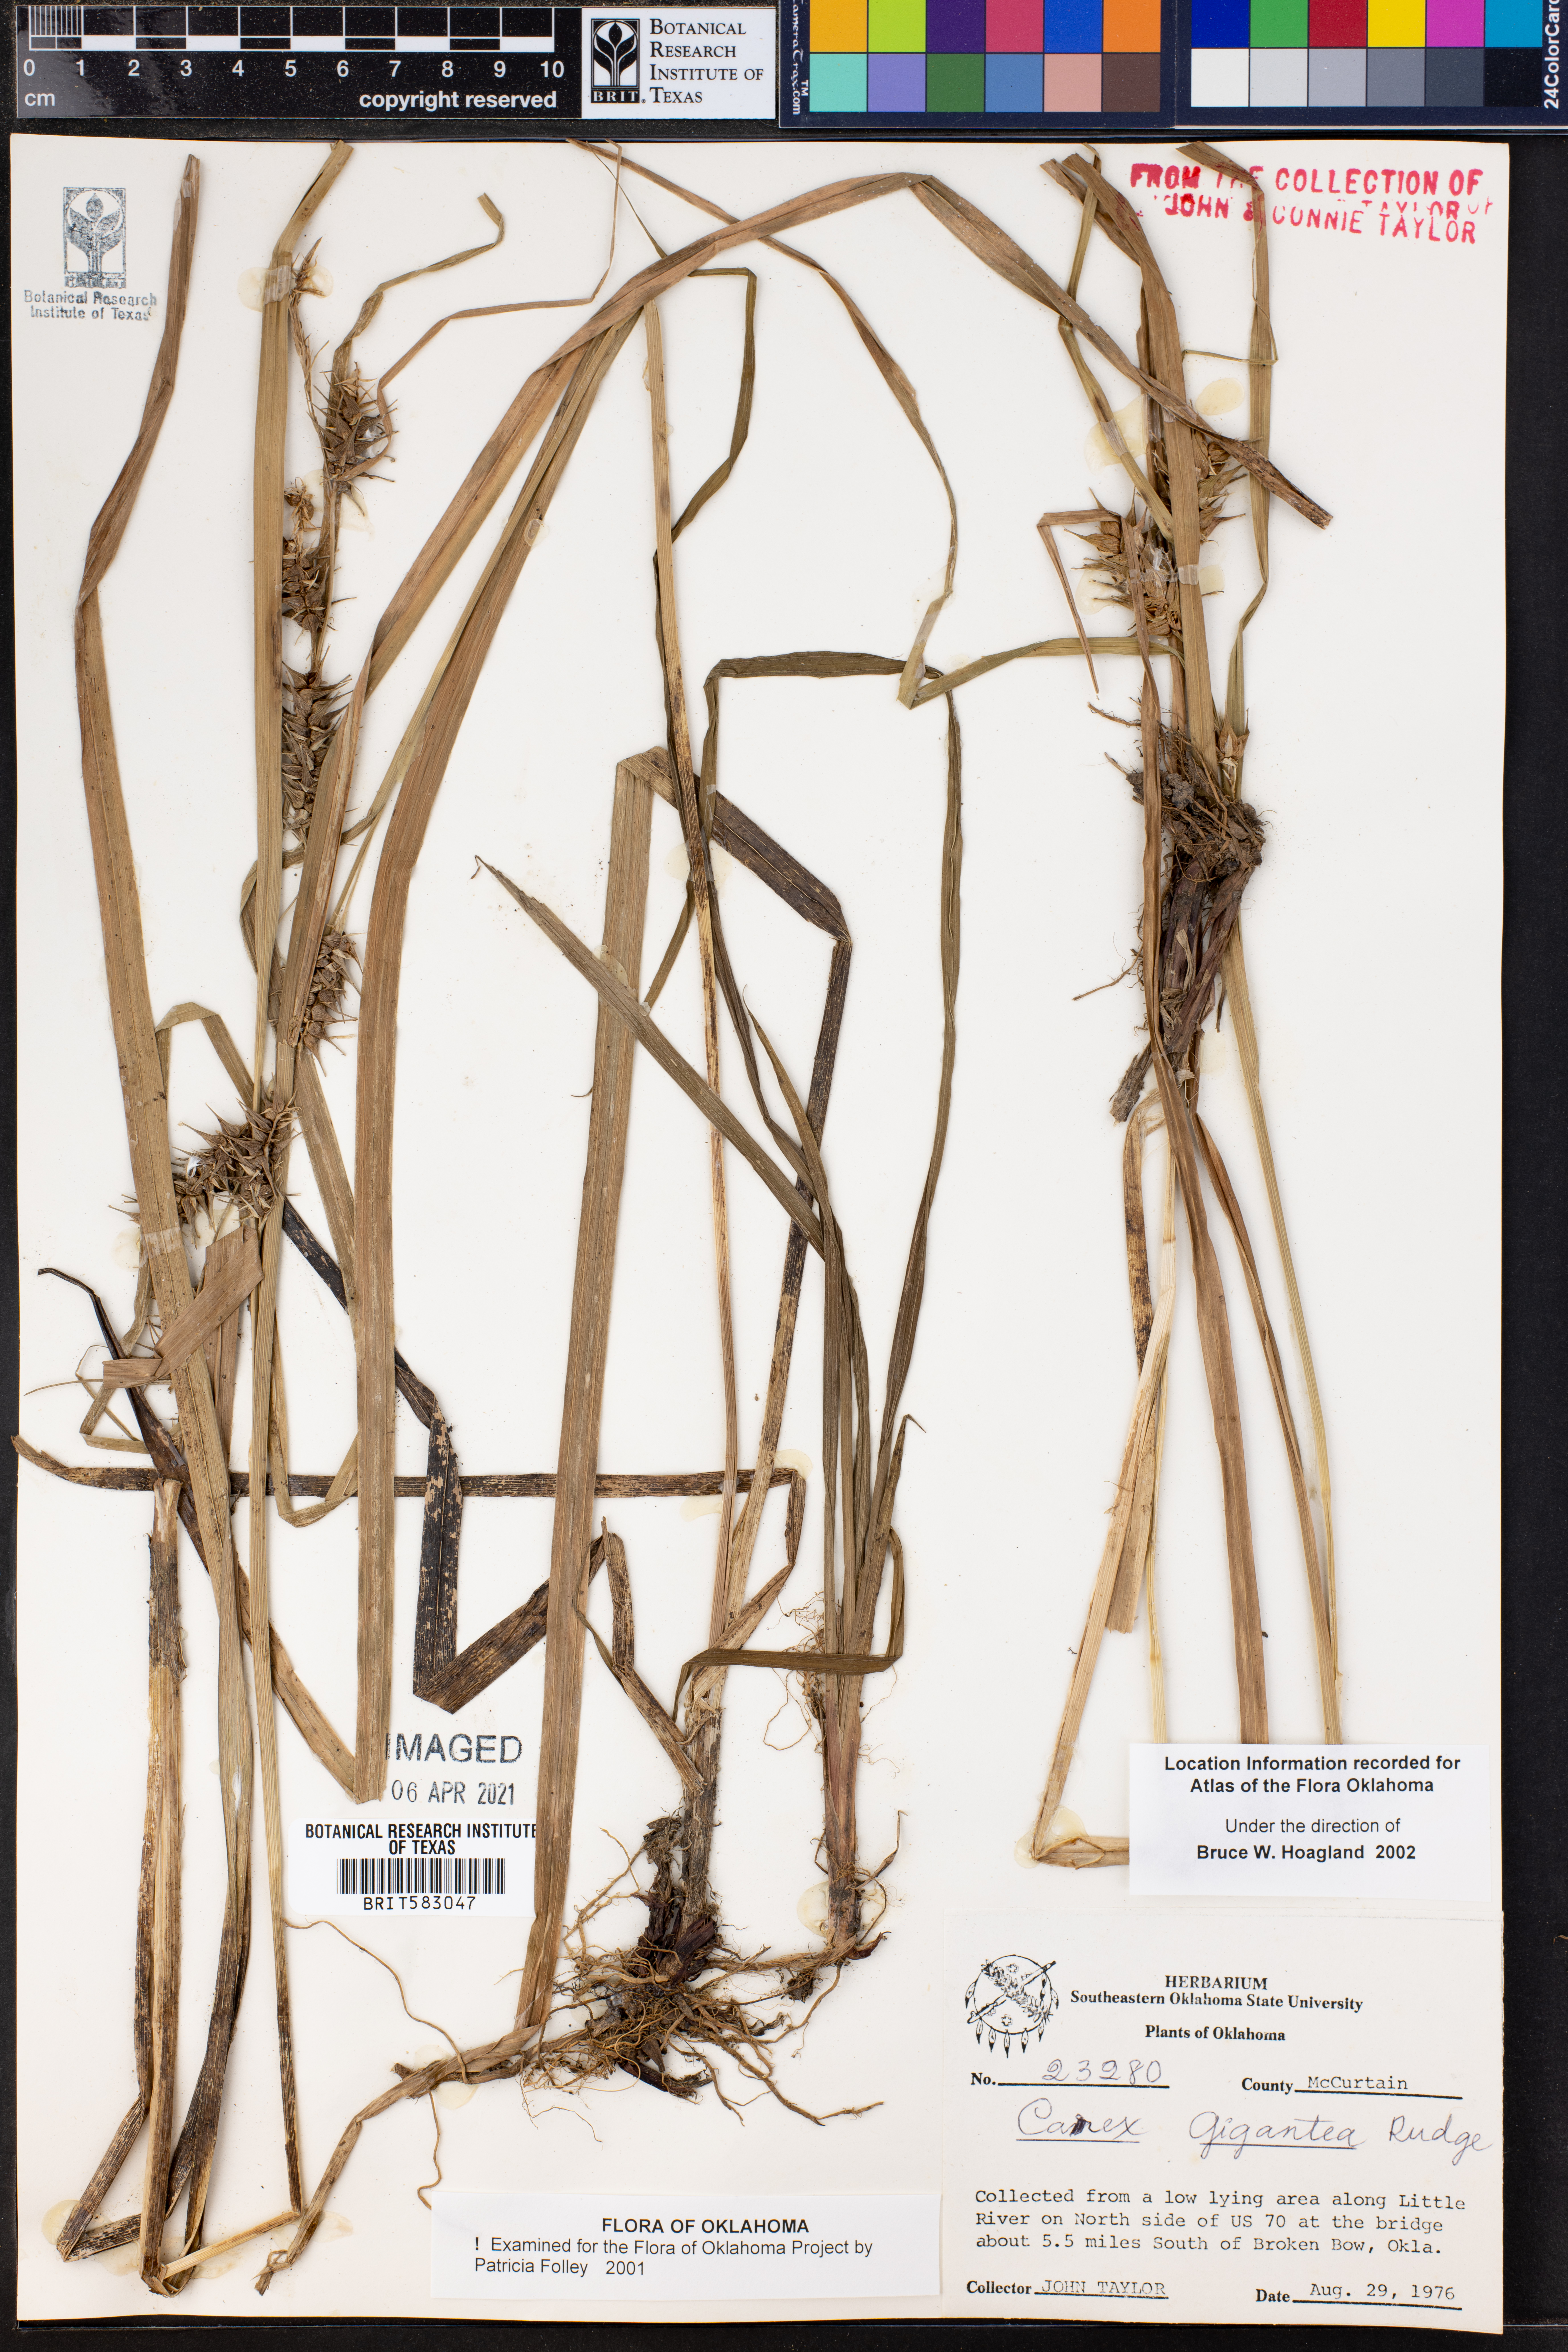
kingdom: Plantae
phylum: Tracheophyta
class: Liliopsida
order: Poales
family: Cyperaceae
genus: Carex
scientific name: Carex gigantea
